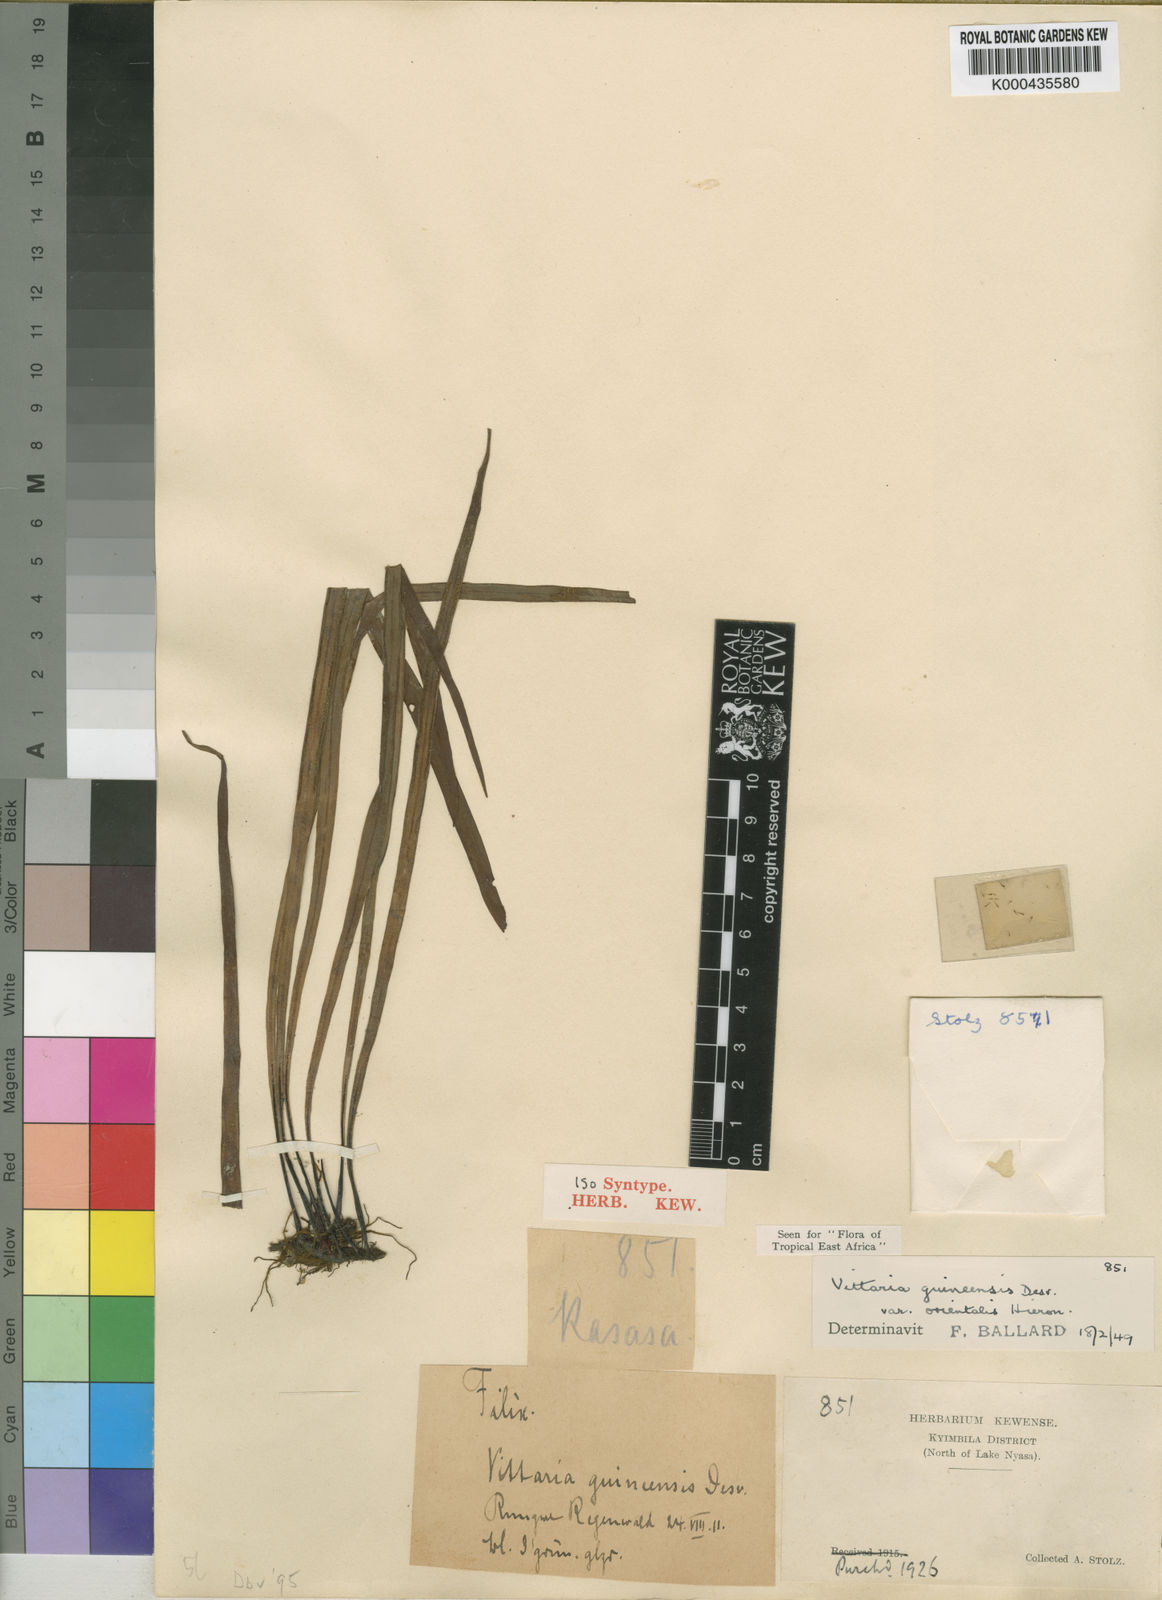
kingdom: Plantae
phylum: Tracheophyta
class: Polypodiopsida
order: Polypodiales
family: Pteridaceae
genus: Haplopteris
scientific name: Haplopteris guineensis
